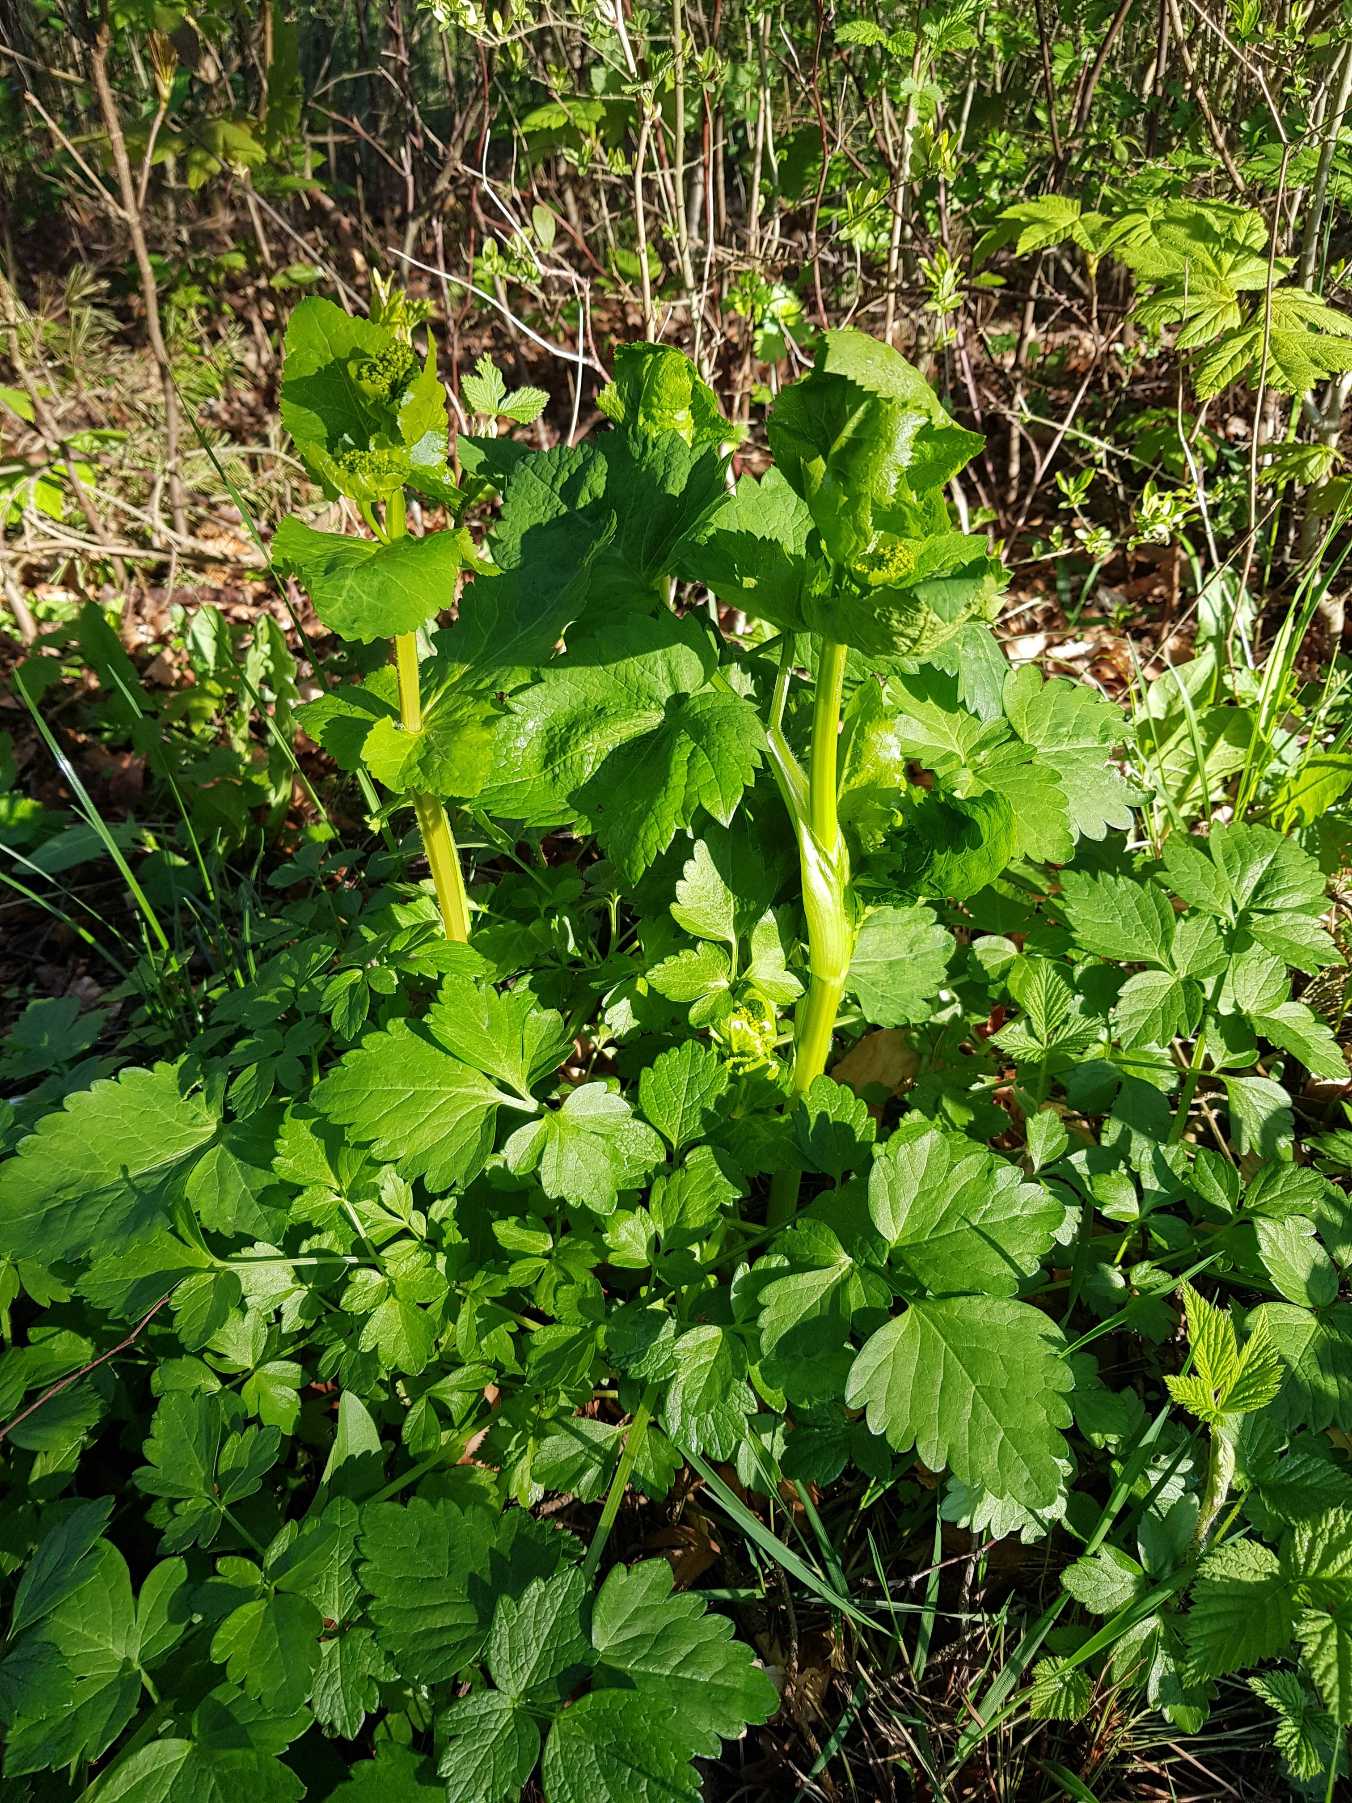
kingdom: Plantae
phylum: Tracheophyta
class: Magnoliopsida
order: Apiales
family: Apiaceae
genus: Smyrnium
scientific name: Smyrnium perfoliatum
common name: Lundgylden
